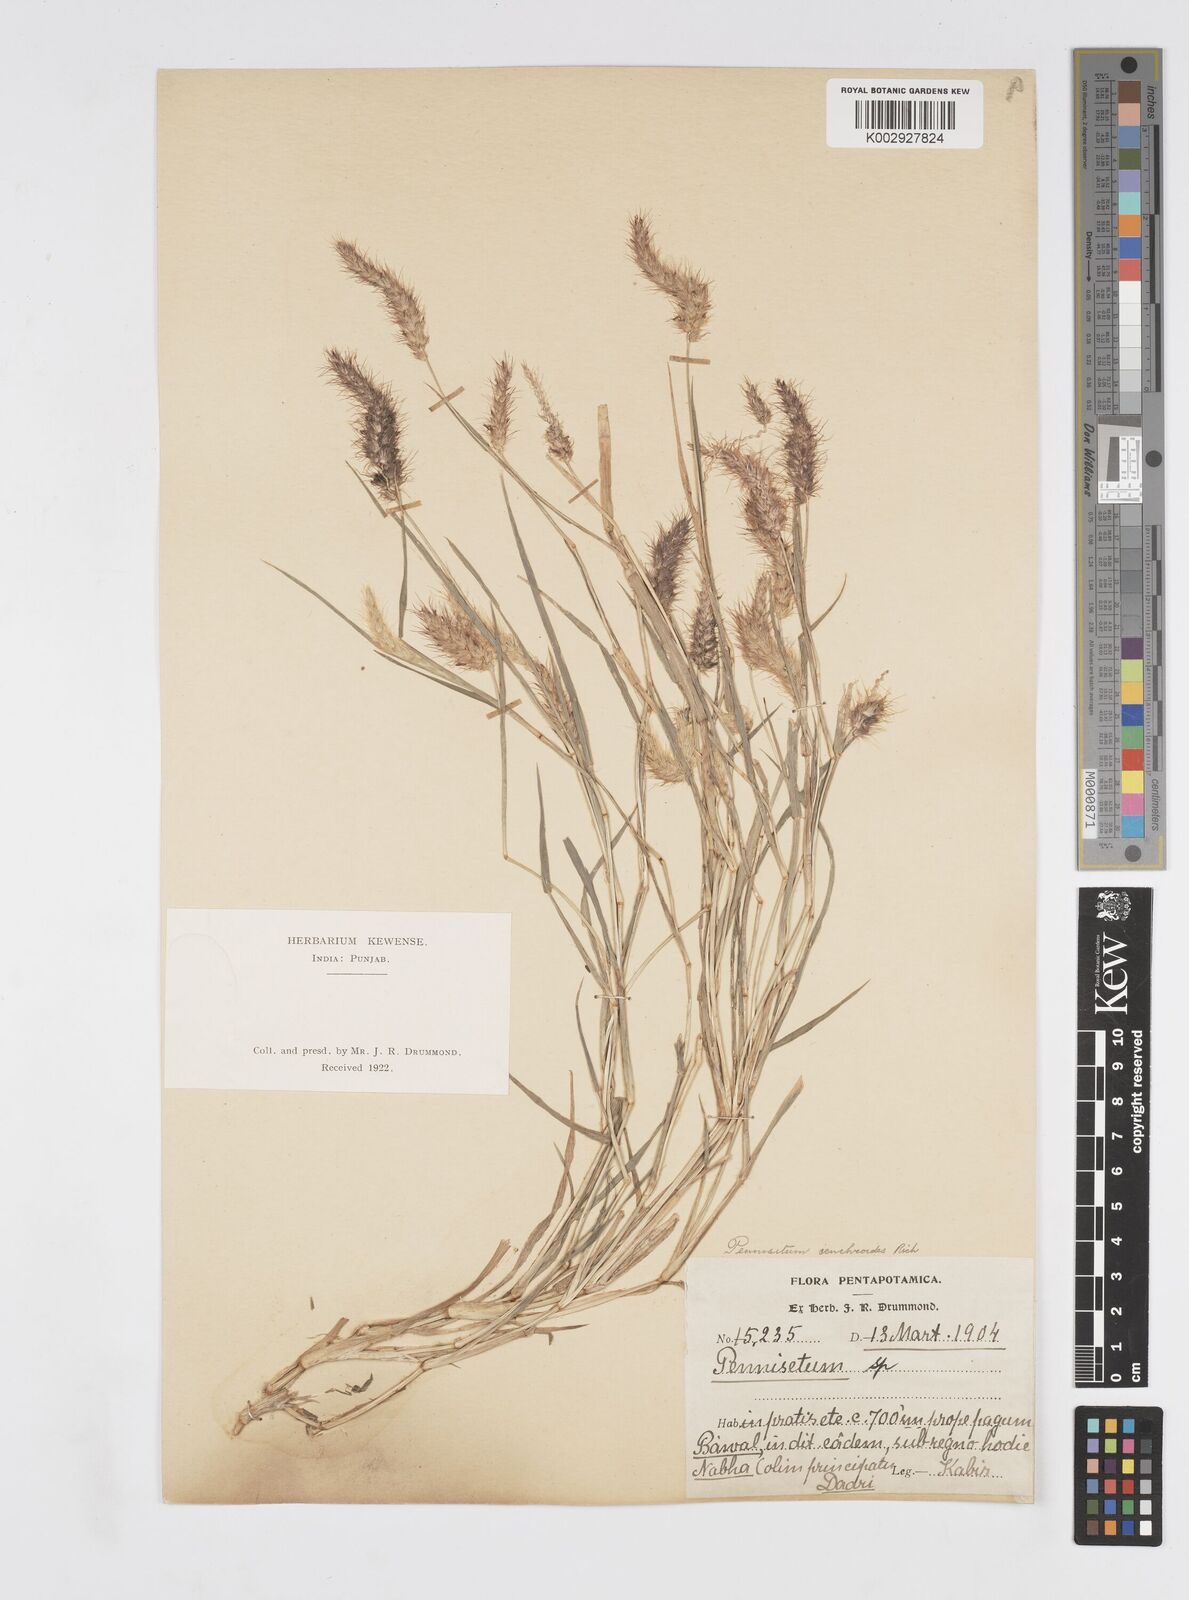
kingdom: Plantae
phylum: Tracheophyta
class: Liliopsida
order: Poales
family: Poaceae
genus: Cenchrus
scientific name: Cenchrus ciliaris
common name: Buffelgrass
